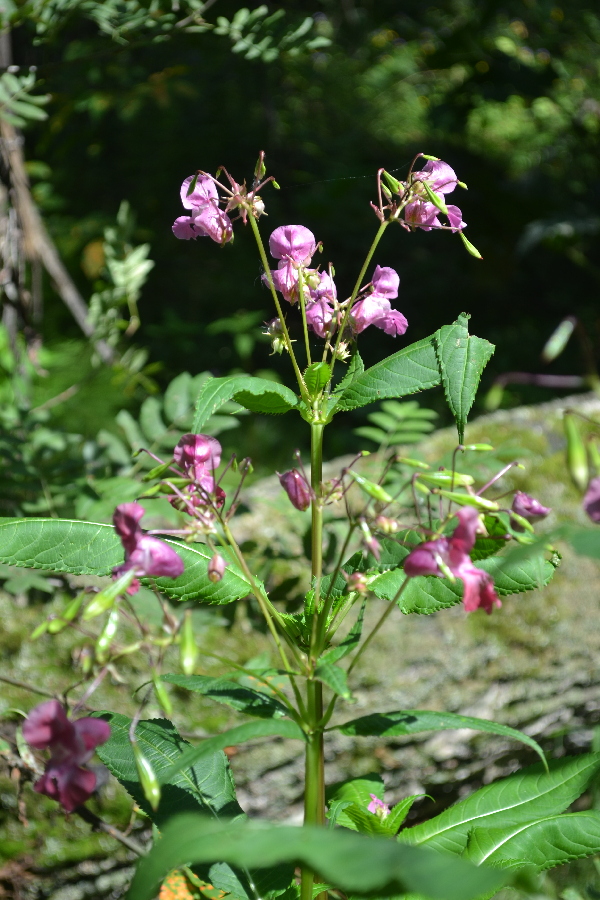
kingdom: Plantae
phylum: Tracheophyta
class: Magnoliopsida
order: Ericales
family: Balsaminaceae
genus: Impatiens
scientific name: Impatiens glandulifera
